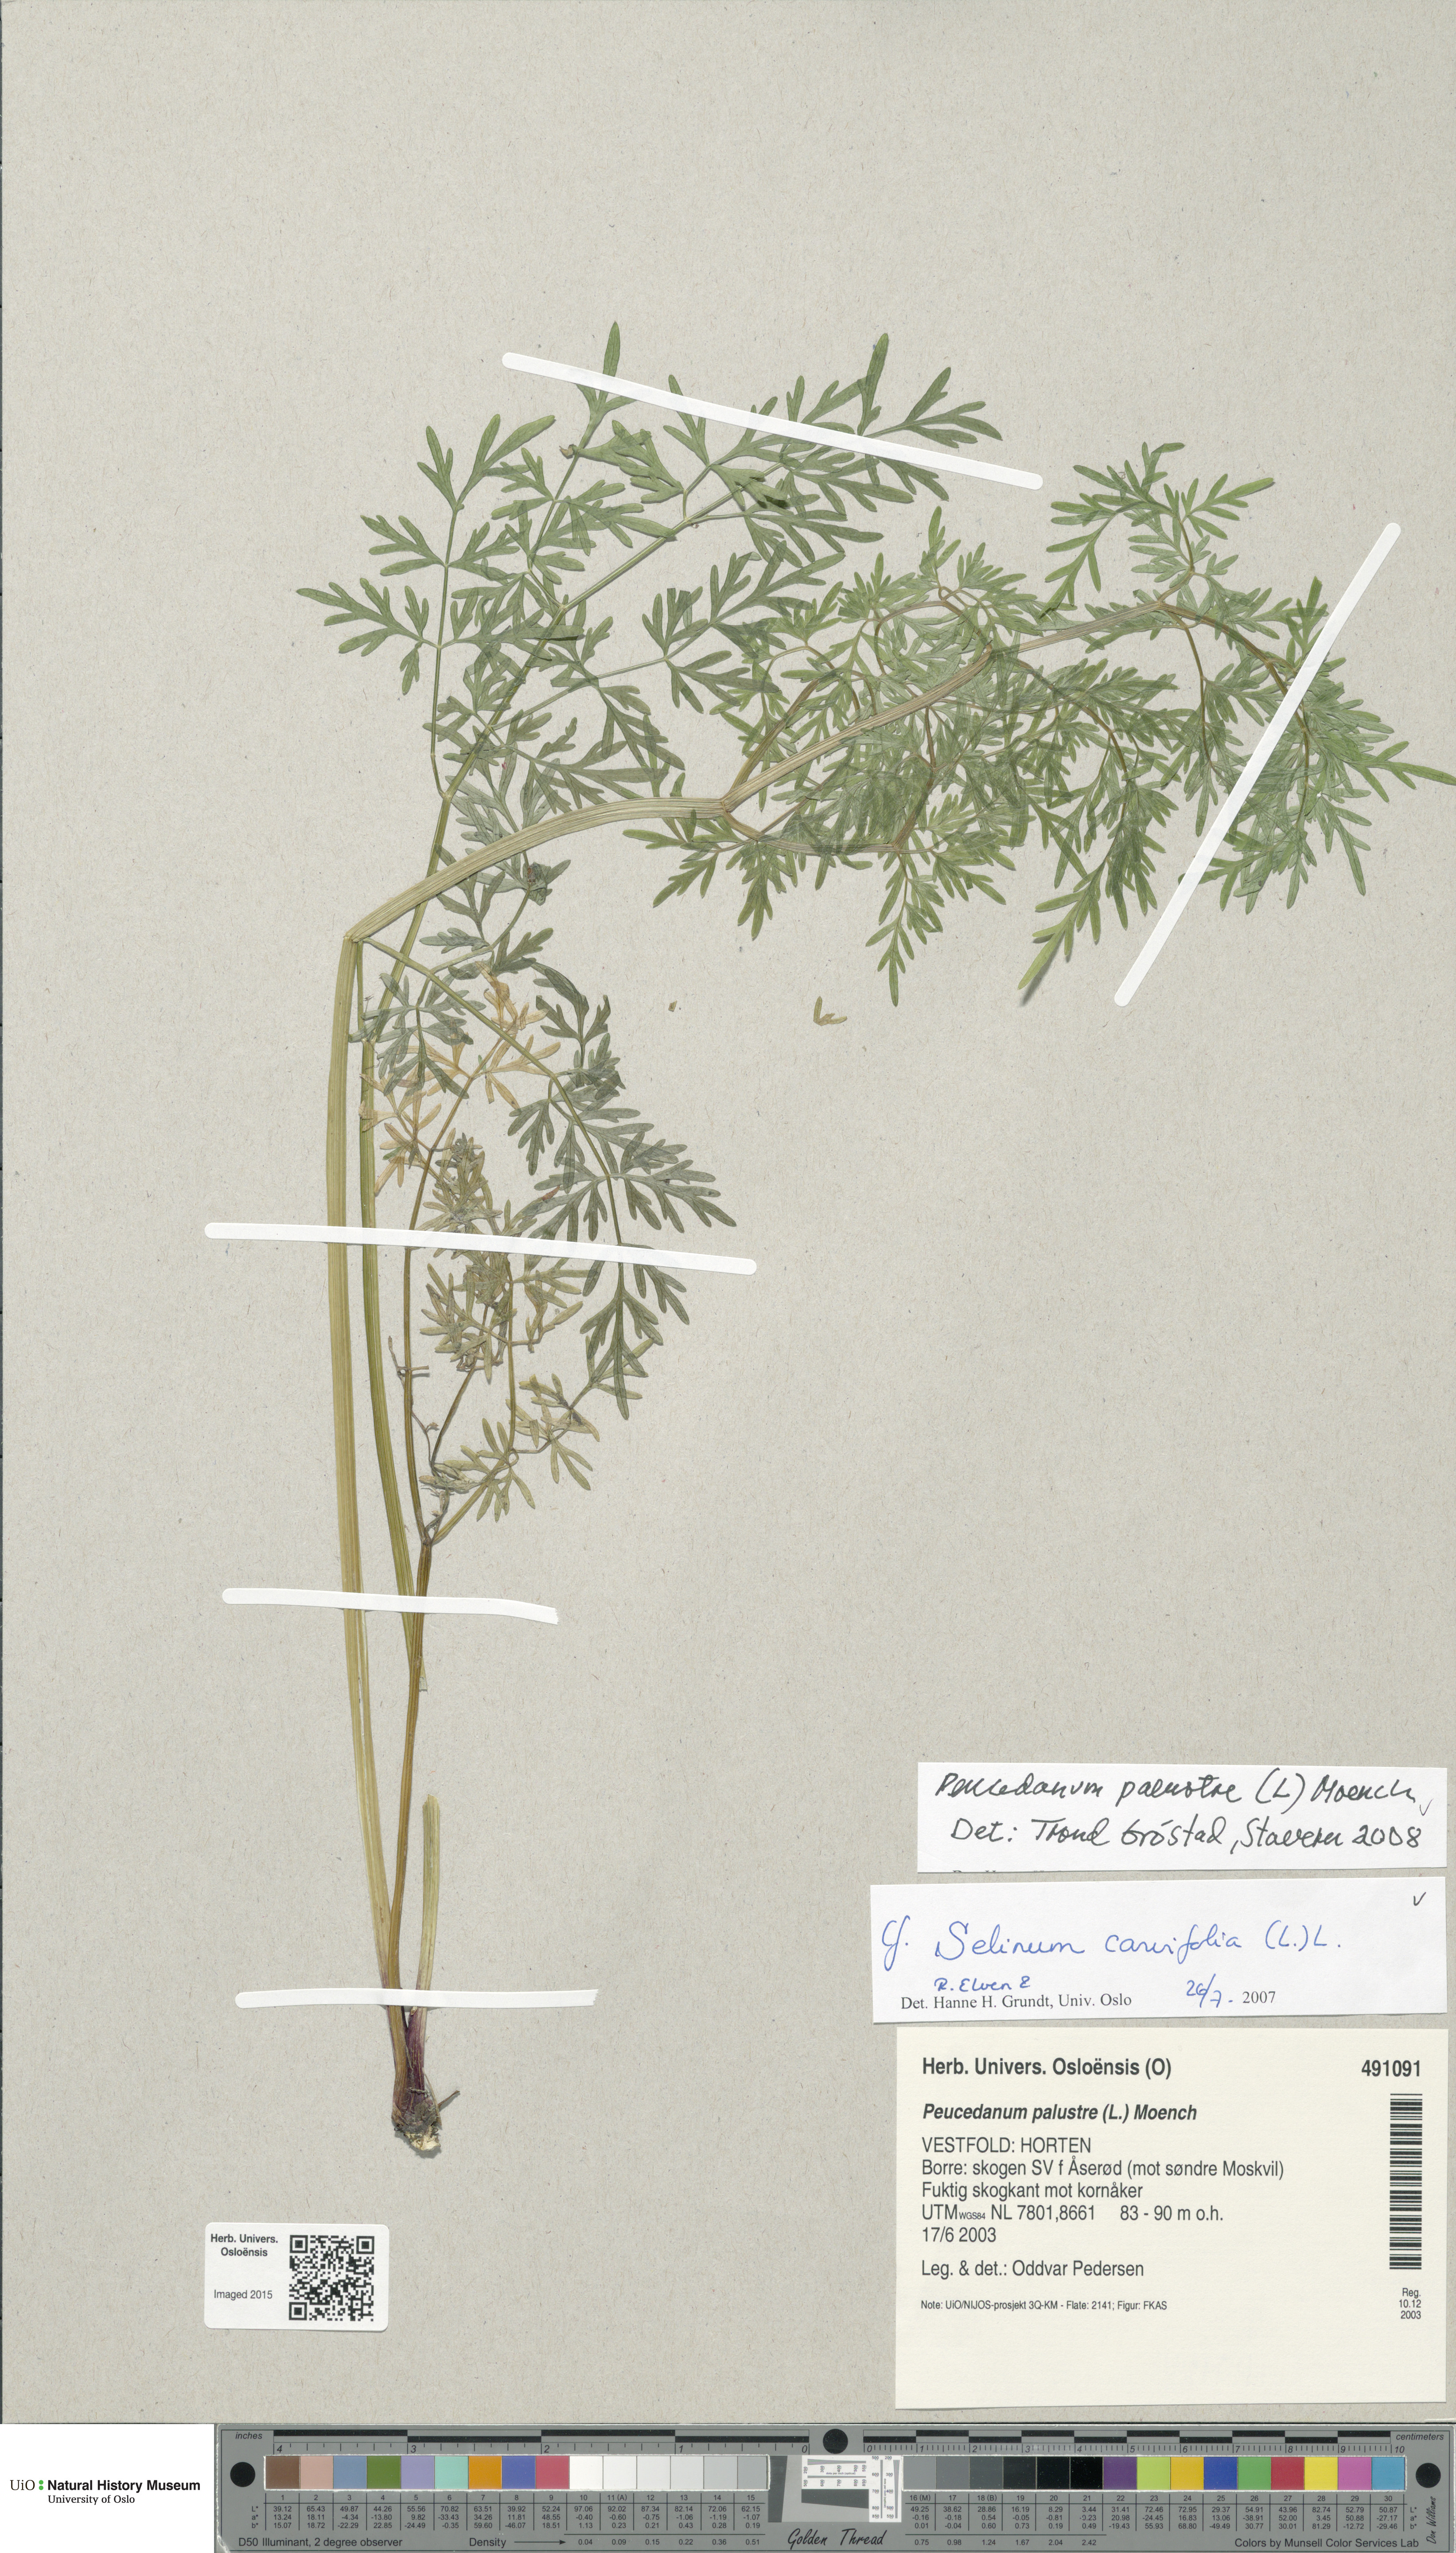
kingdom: Plantae
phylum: Tracheophyta
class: Magnoliopsida
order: Apiales
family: Apiaceae
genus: Thysselinum
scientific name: Thysselinum palustre
